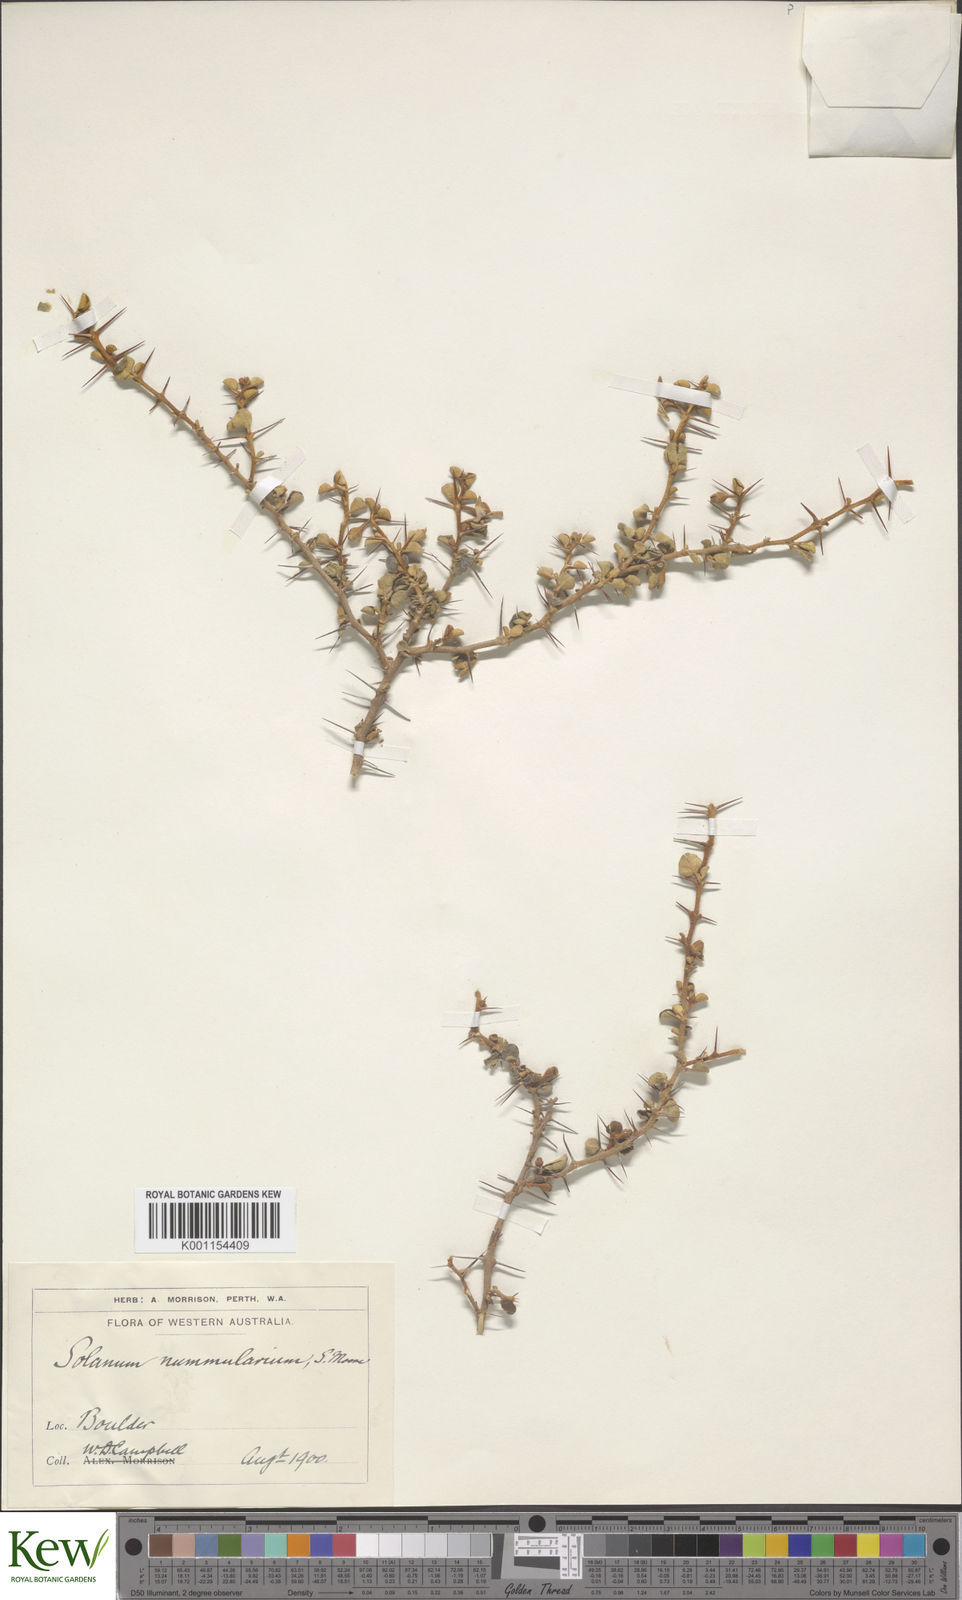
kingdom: Plantae
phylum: Tracheophyta
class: Magnoliopsida
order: Solanales
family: Solanaceae
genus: Solanum
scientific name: Solanum nummularium
